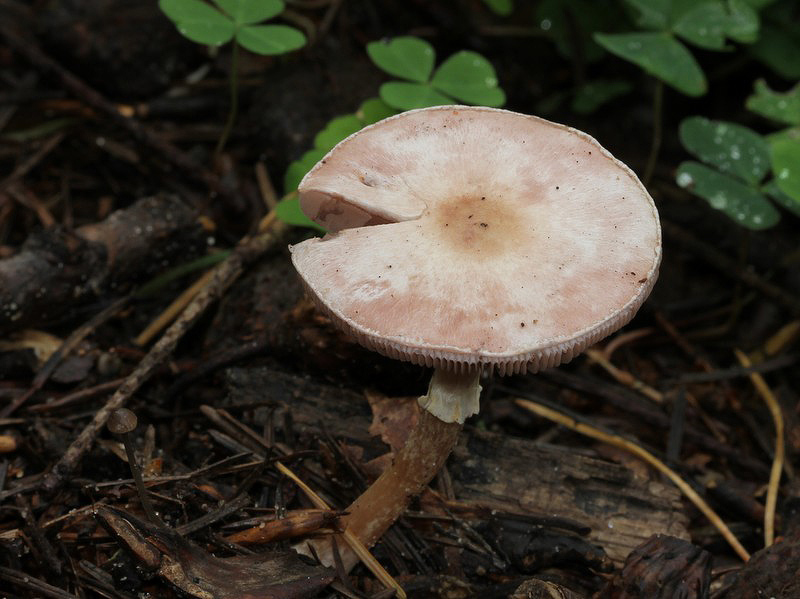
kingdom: Fungi
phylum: Basidiomycota
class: Agaricomycetes
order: Agaricales
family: Agaricaceae
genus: Agaricus
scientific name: Agaricus dulcidulus
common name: blegrød champignon
